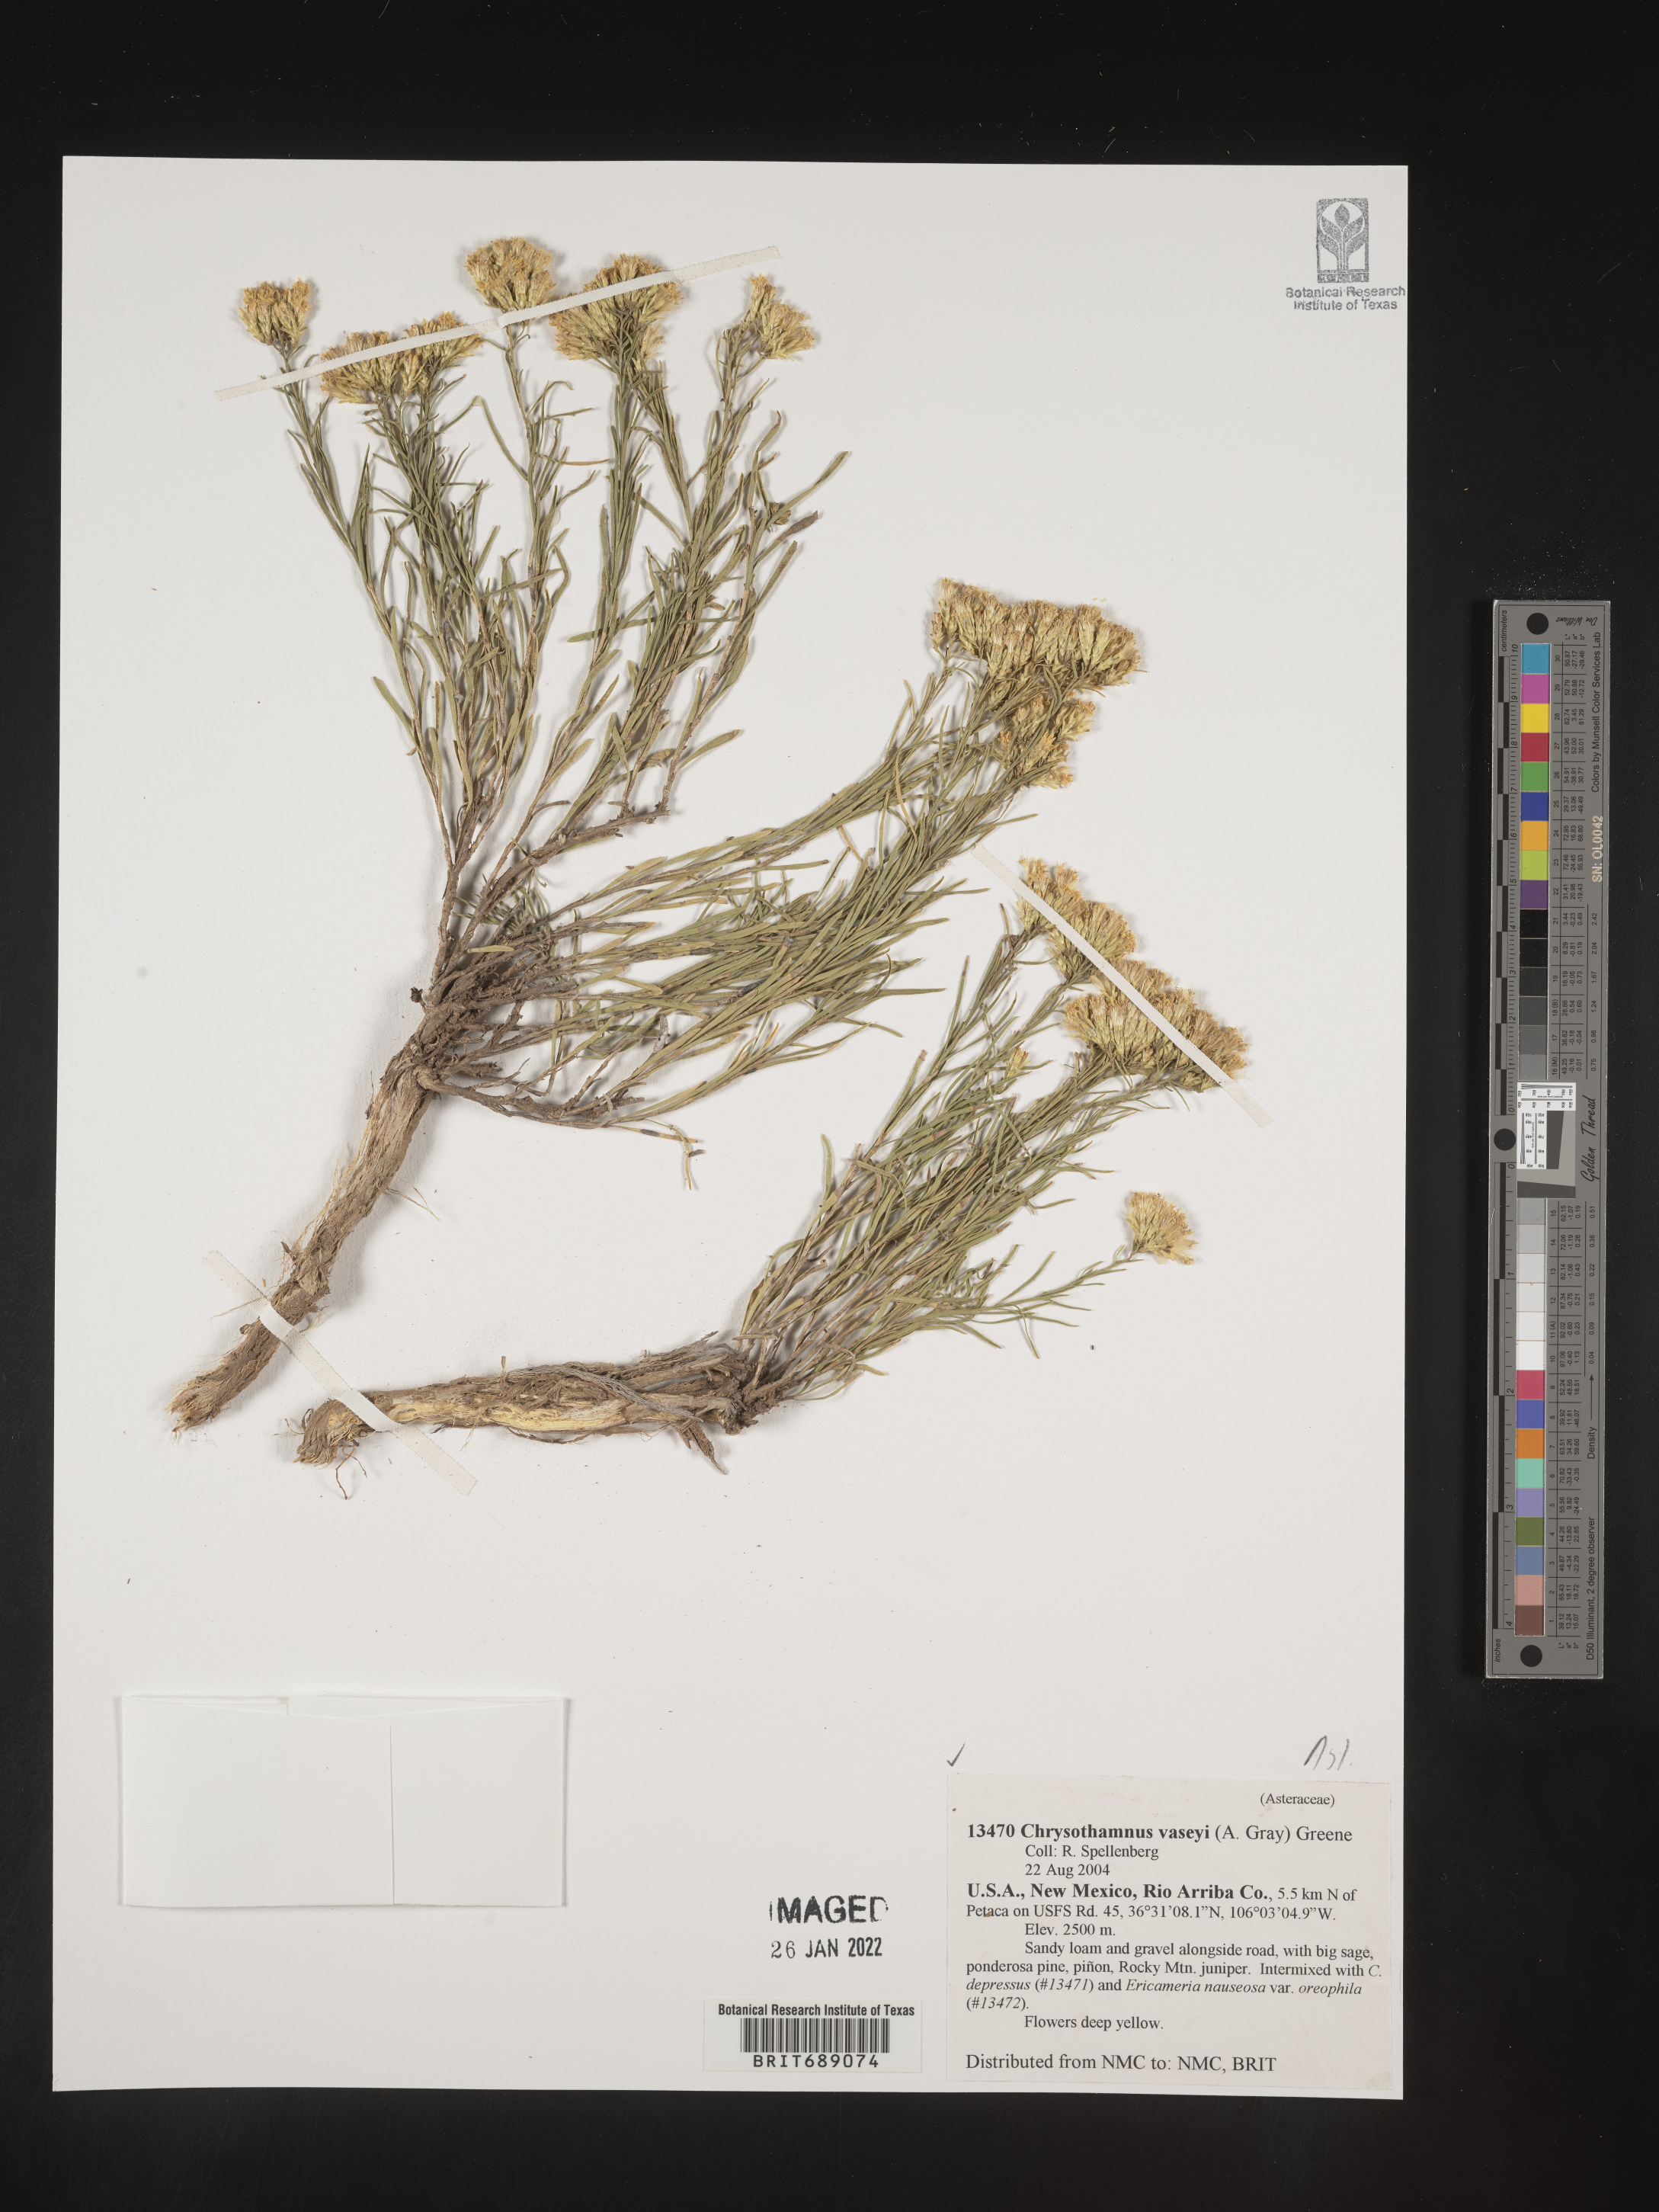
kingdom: Plantae
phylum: Tracheophyta
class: Magnoliopsida
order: Asterales
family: Asteraceae
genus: Chrysothamnus
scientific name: Chrysothamnus vaseyi
